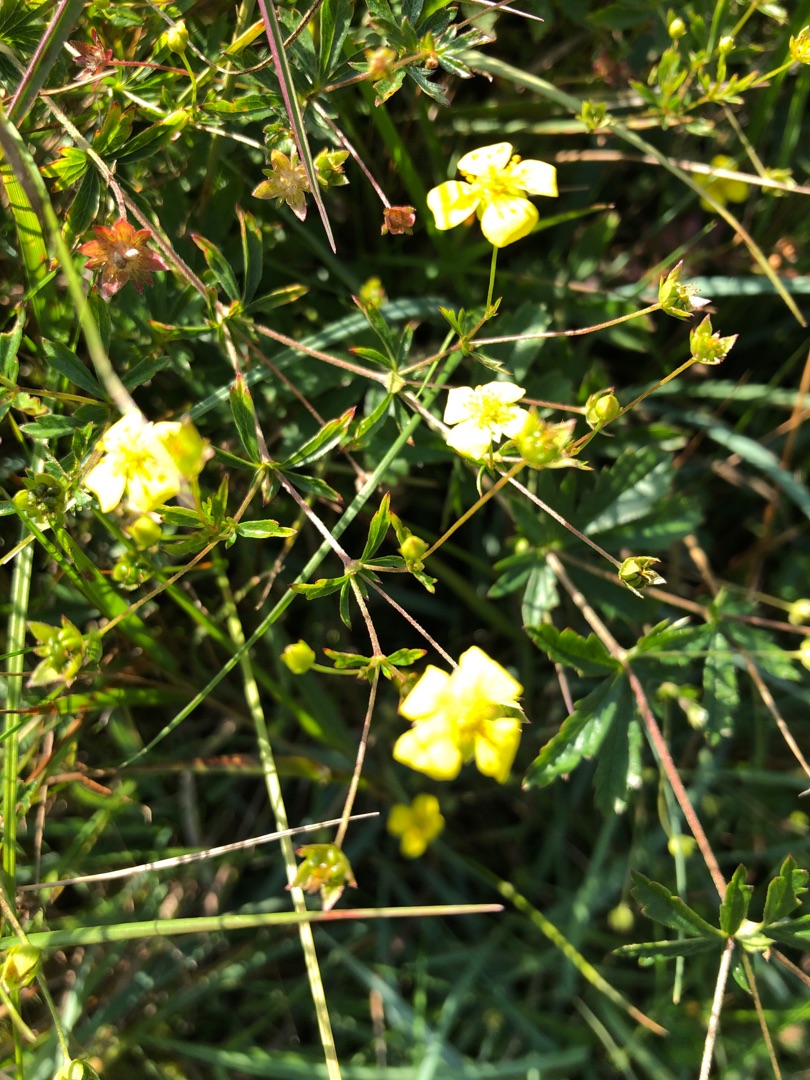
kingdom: Plantae
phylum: Tracheophyta
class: Magnoliopsida
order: Rosales
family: Rosaceae
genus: Potentilla
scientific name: Potentilla erecta
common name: Tormentil
